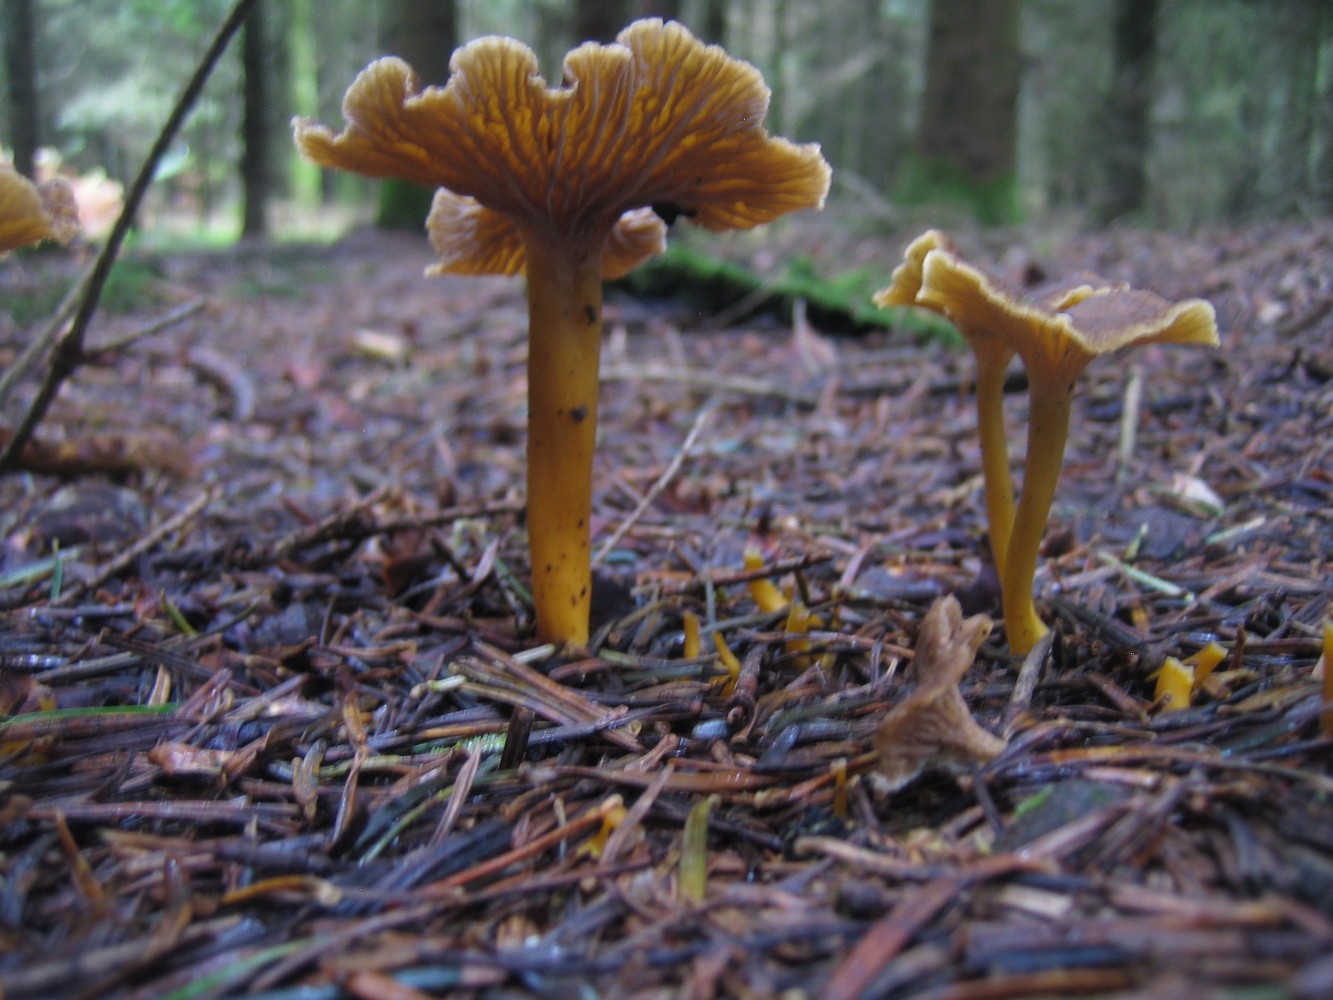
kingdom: Fungi
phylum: Basidiomycota
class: Agaricomycetes
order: Cantharellales
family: Hydnaceae
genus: Craterellus
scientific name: Craterellus tubaeformis
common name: tragt-kantarel
